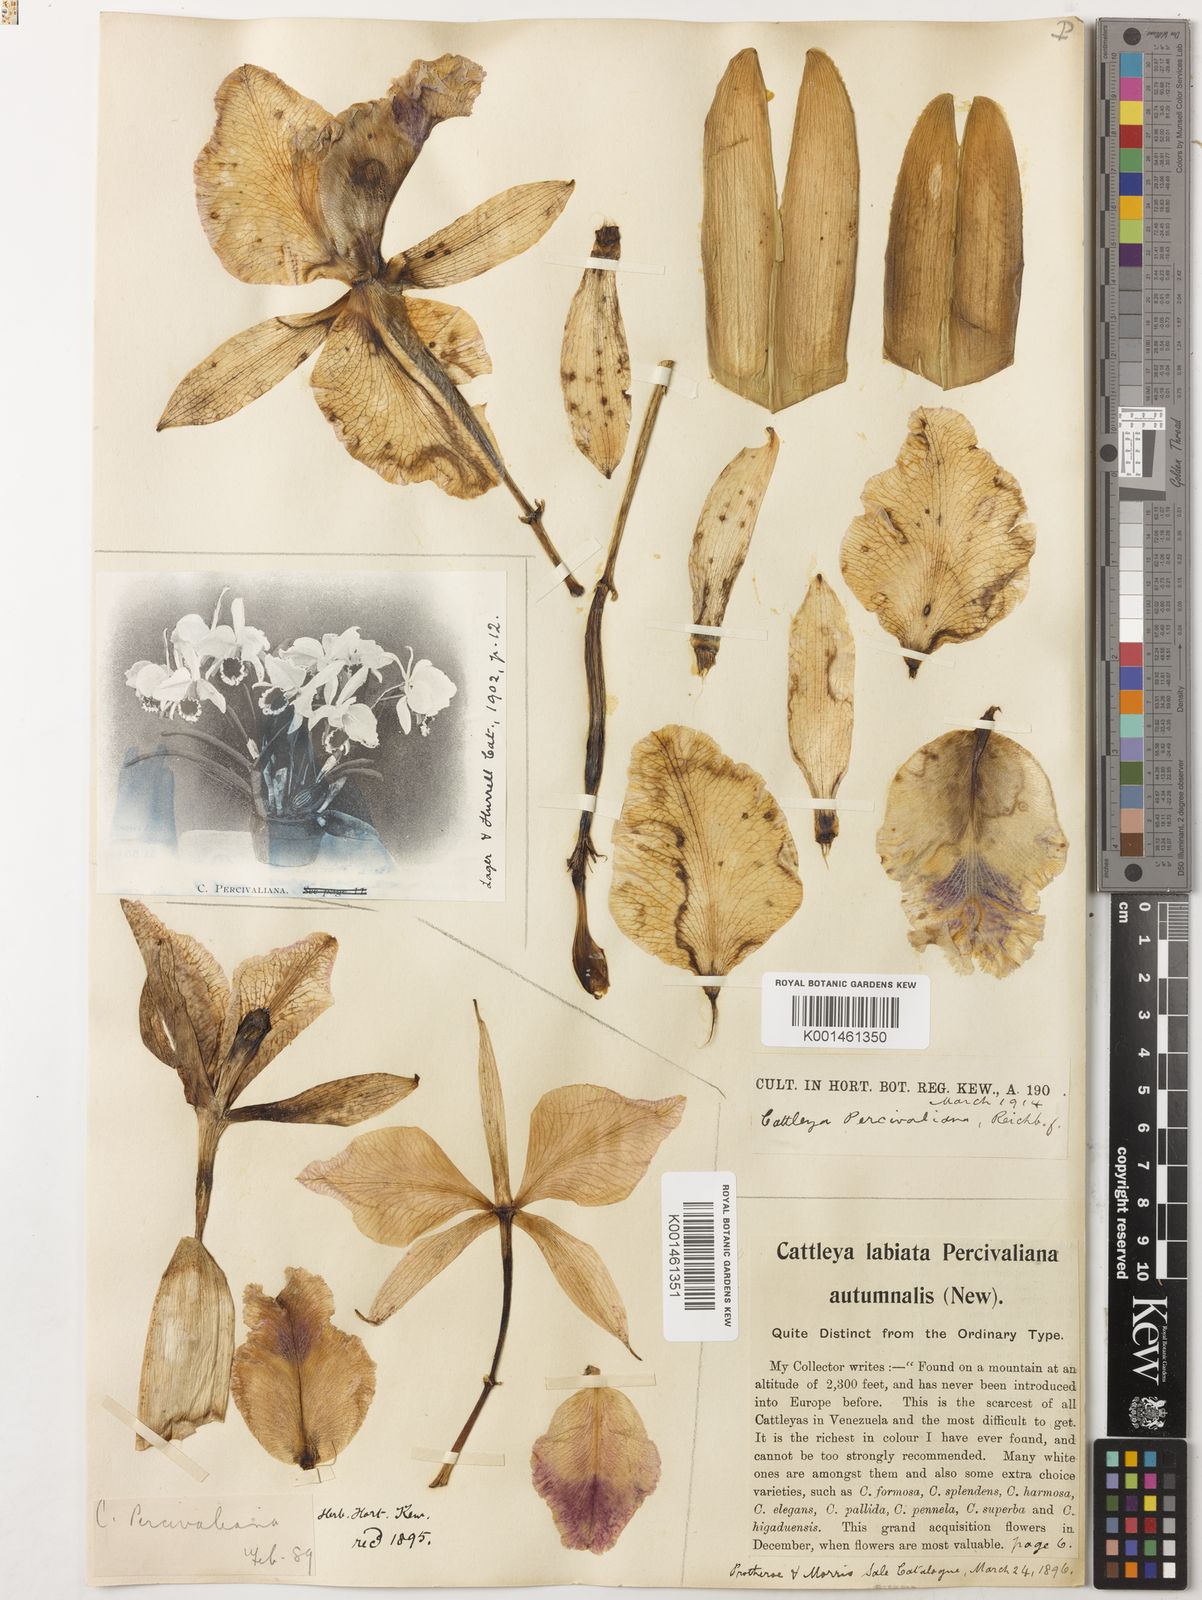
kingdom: Plantae
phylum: Tracheophyta
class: Liliopsida
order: Asparagales
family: Orchidaceae
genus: Cattleya
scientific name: Cattleya percivaliana
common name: Christmas cattleya
